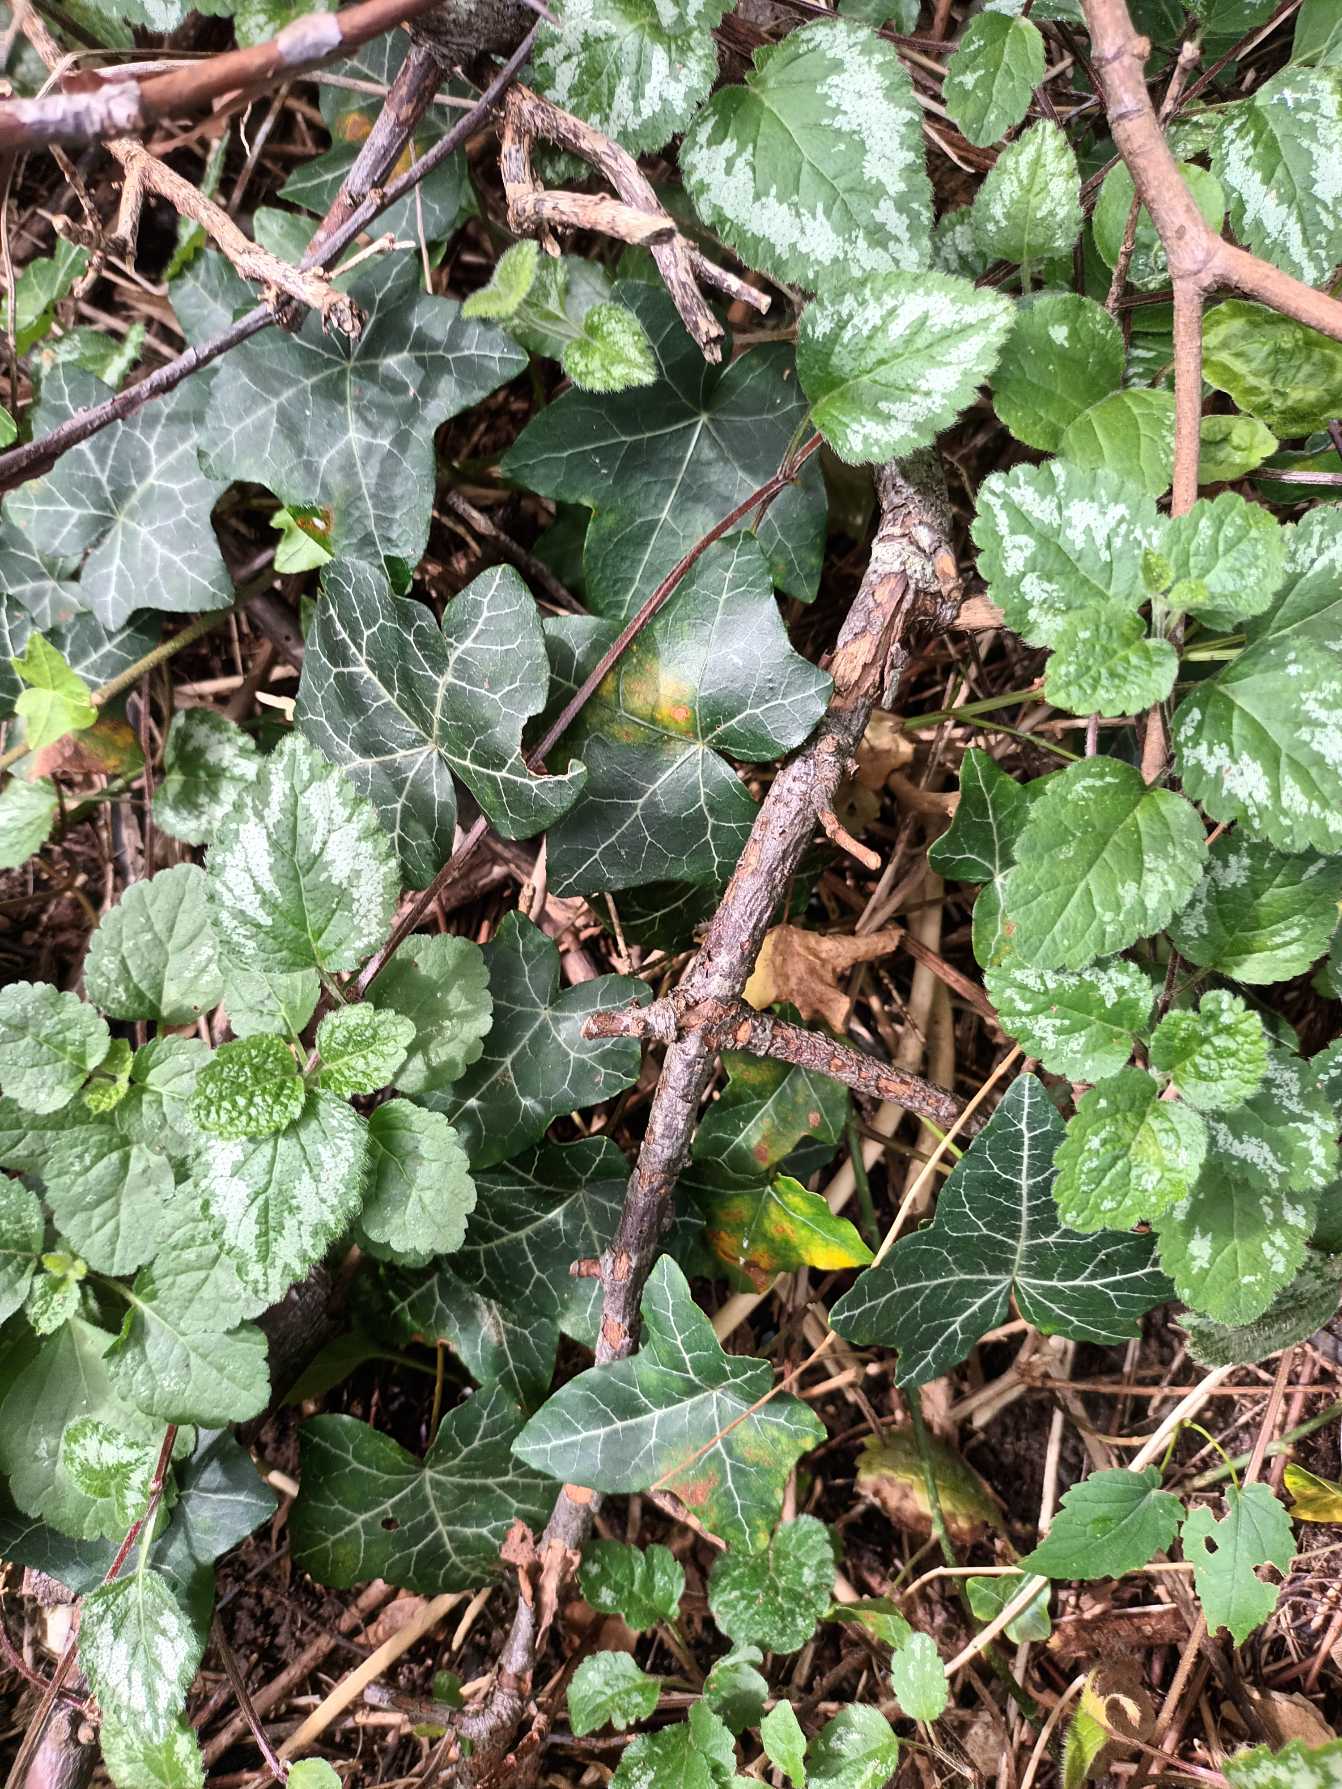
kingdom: Plantae
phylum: Tracheophyta
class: Magnoliopsida
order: Apiales
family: Araliaceae
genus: Hedera
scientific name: Hedera helix
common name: Vedbend
